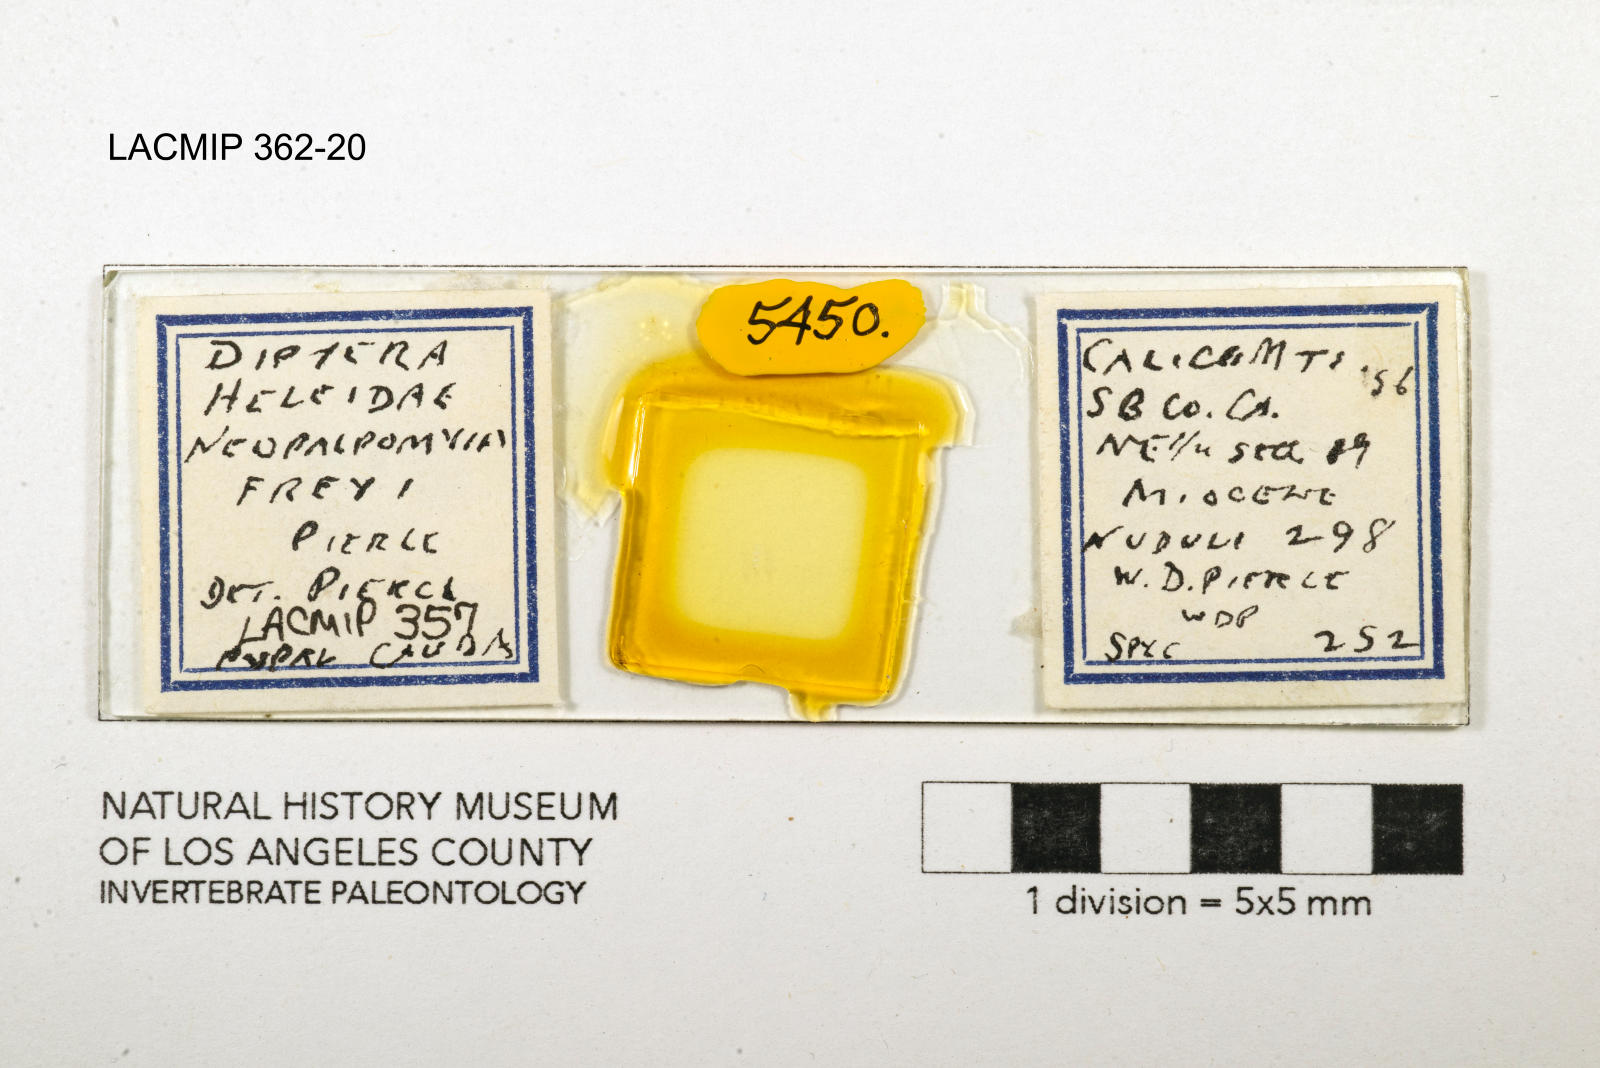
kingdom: Animalia
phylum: Arthropoda
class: Insecta
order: Diptera
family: Ceratopogonidae
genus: Palpomyia
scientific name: Palpomyia freyi
